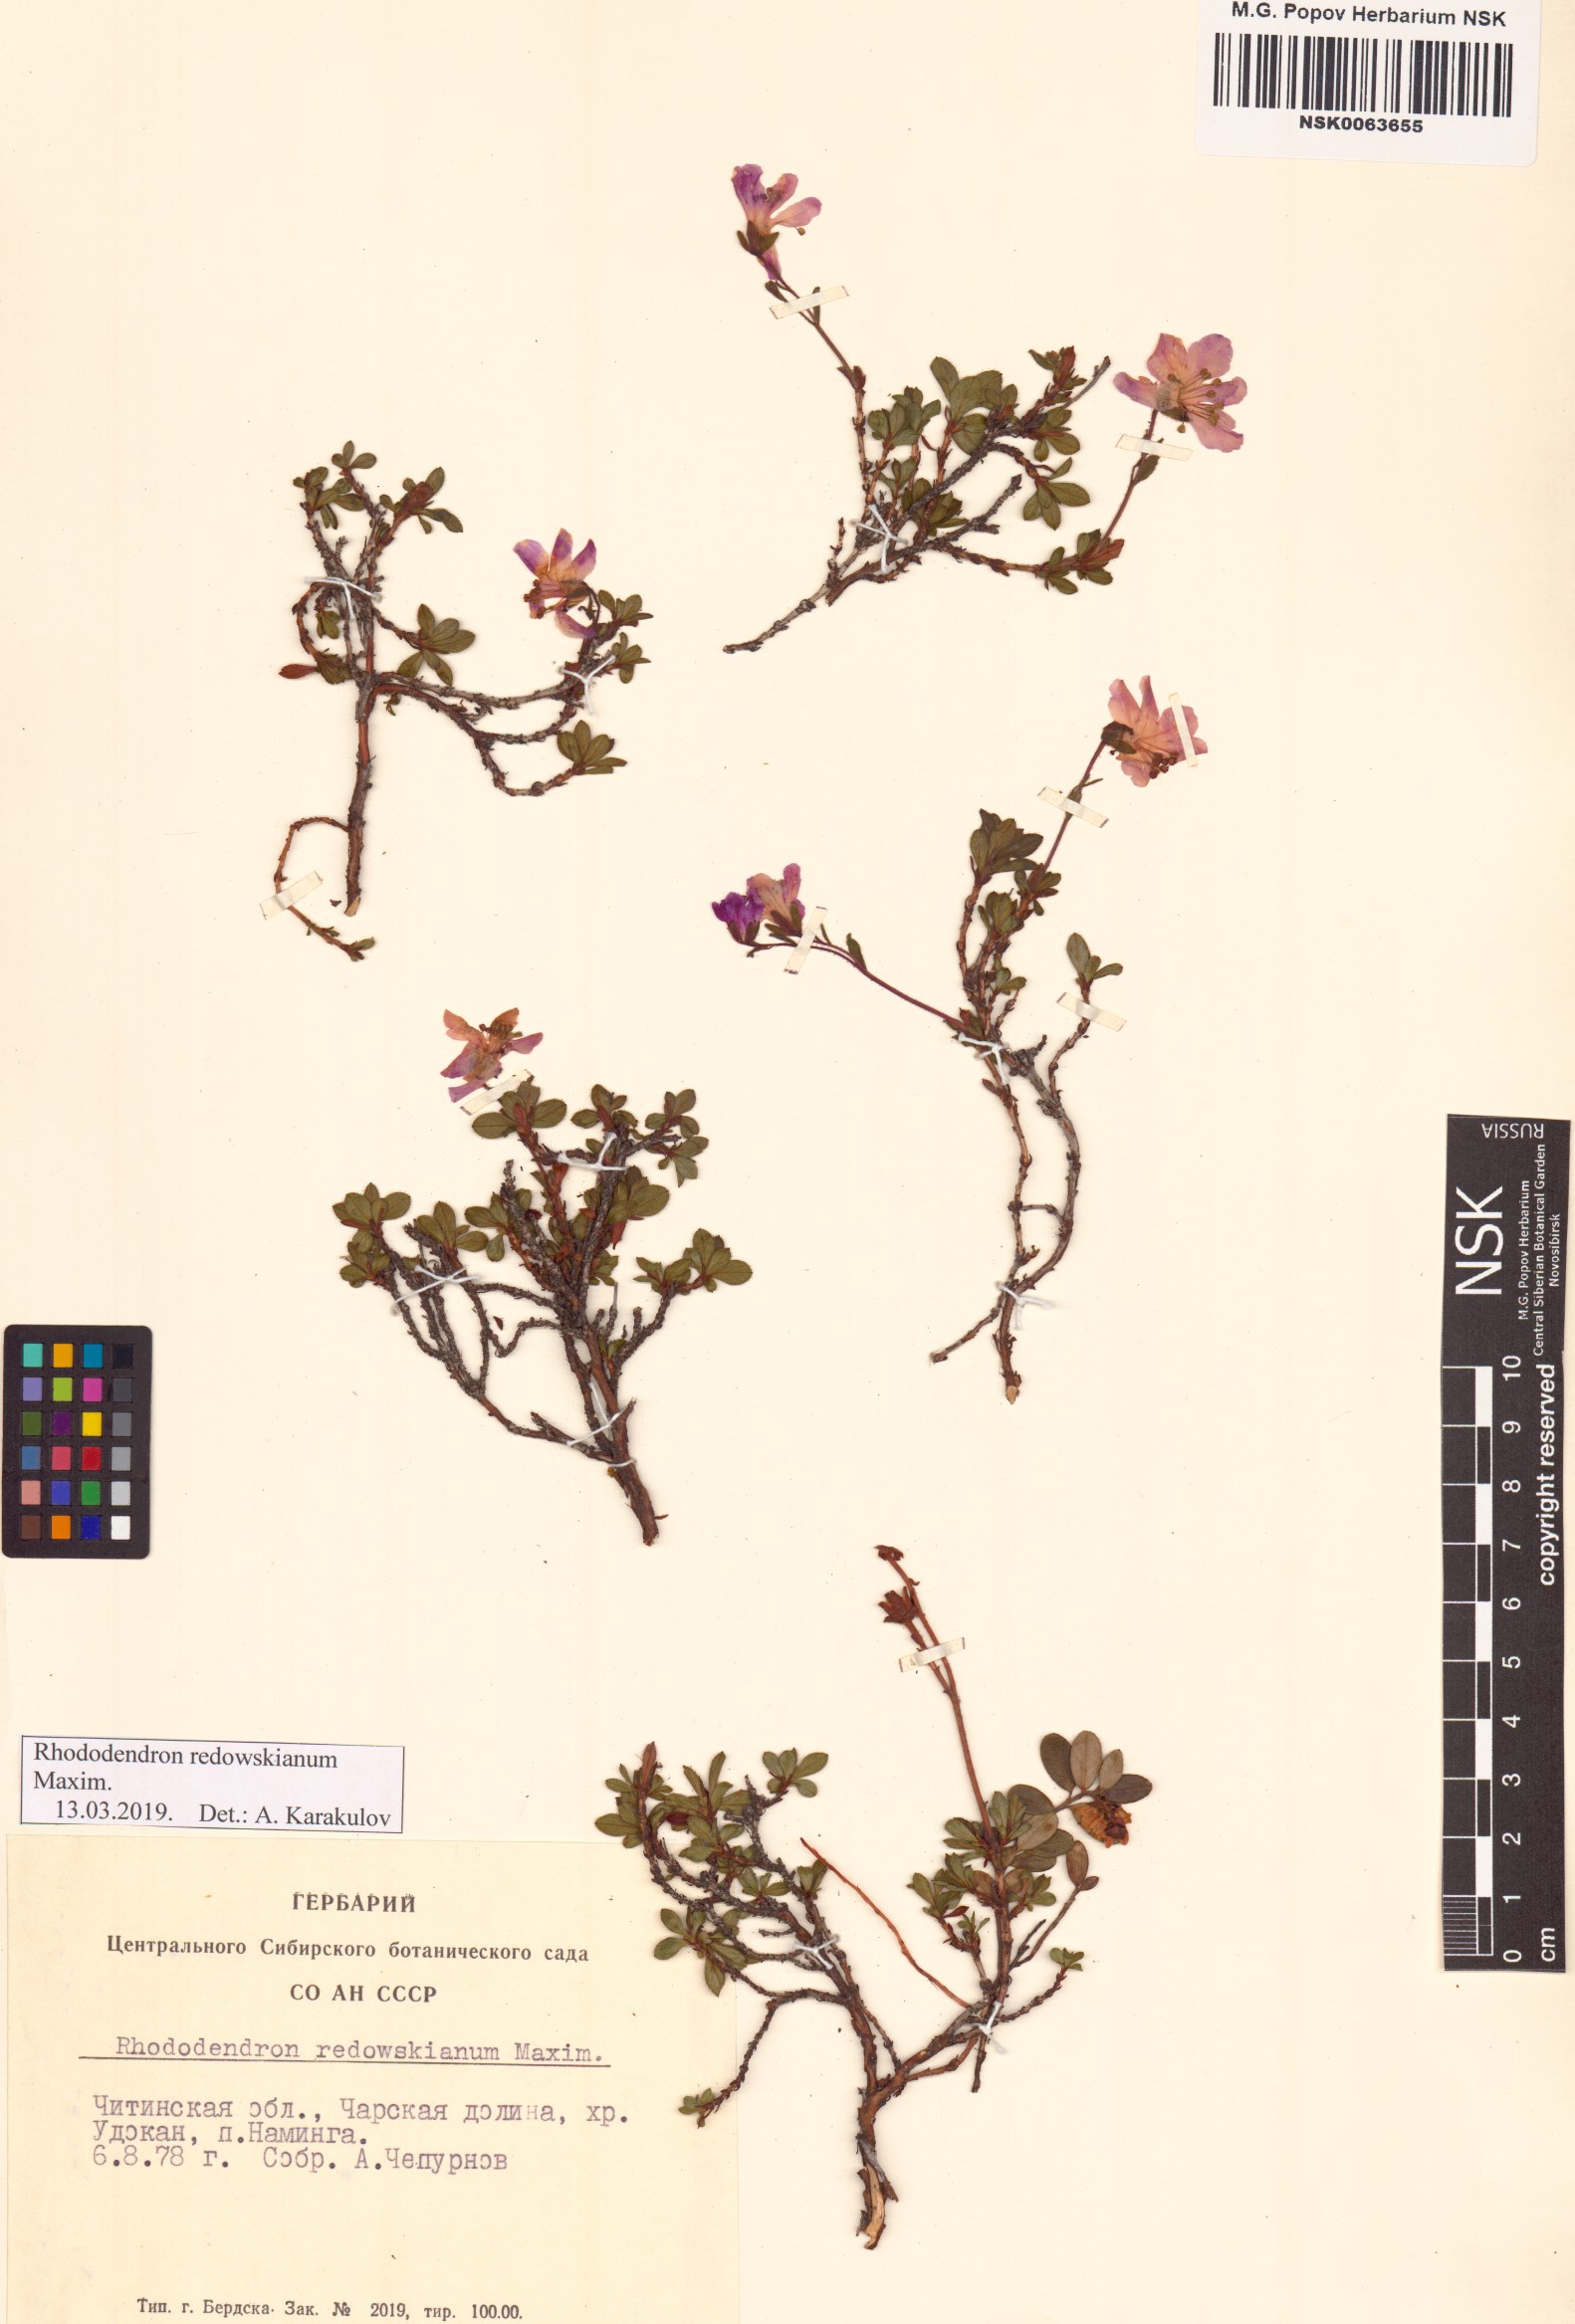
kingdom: Plantae
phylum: Tracheophyta
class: Magnoliopsida
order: Ericales
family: Ericaceae
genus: Rhododendron
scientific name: Rhododendron redowskianum
